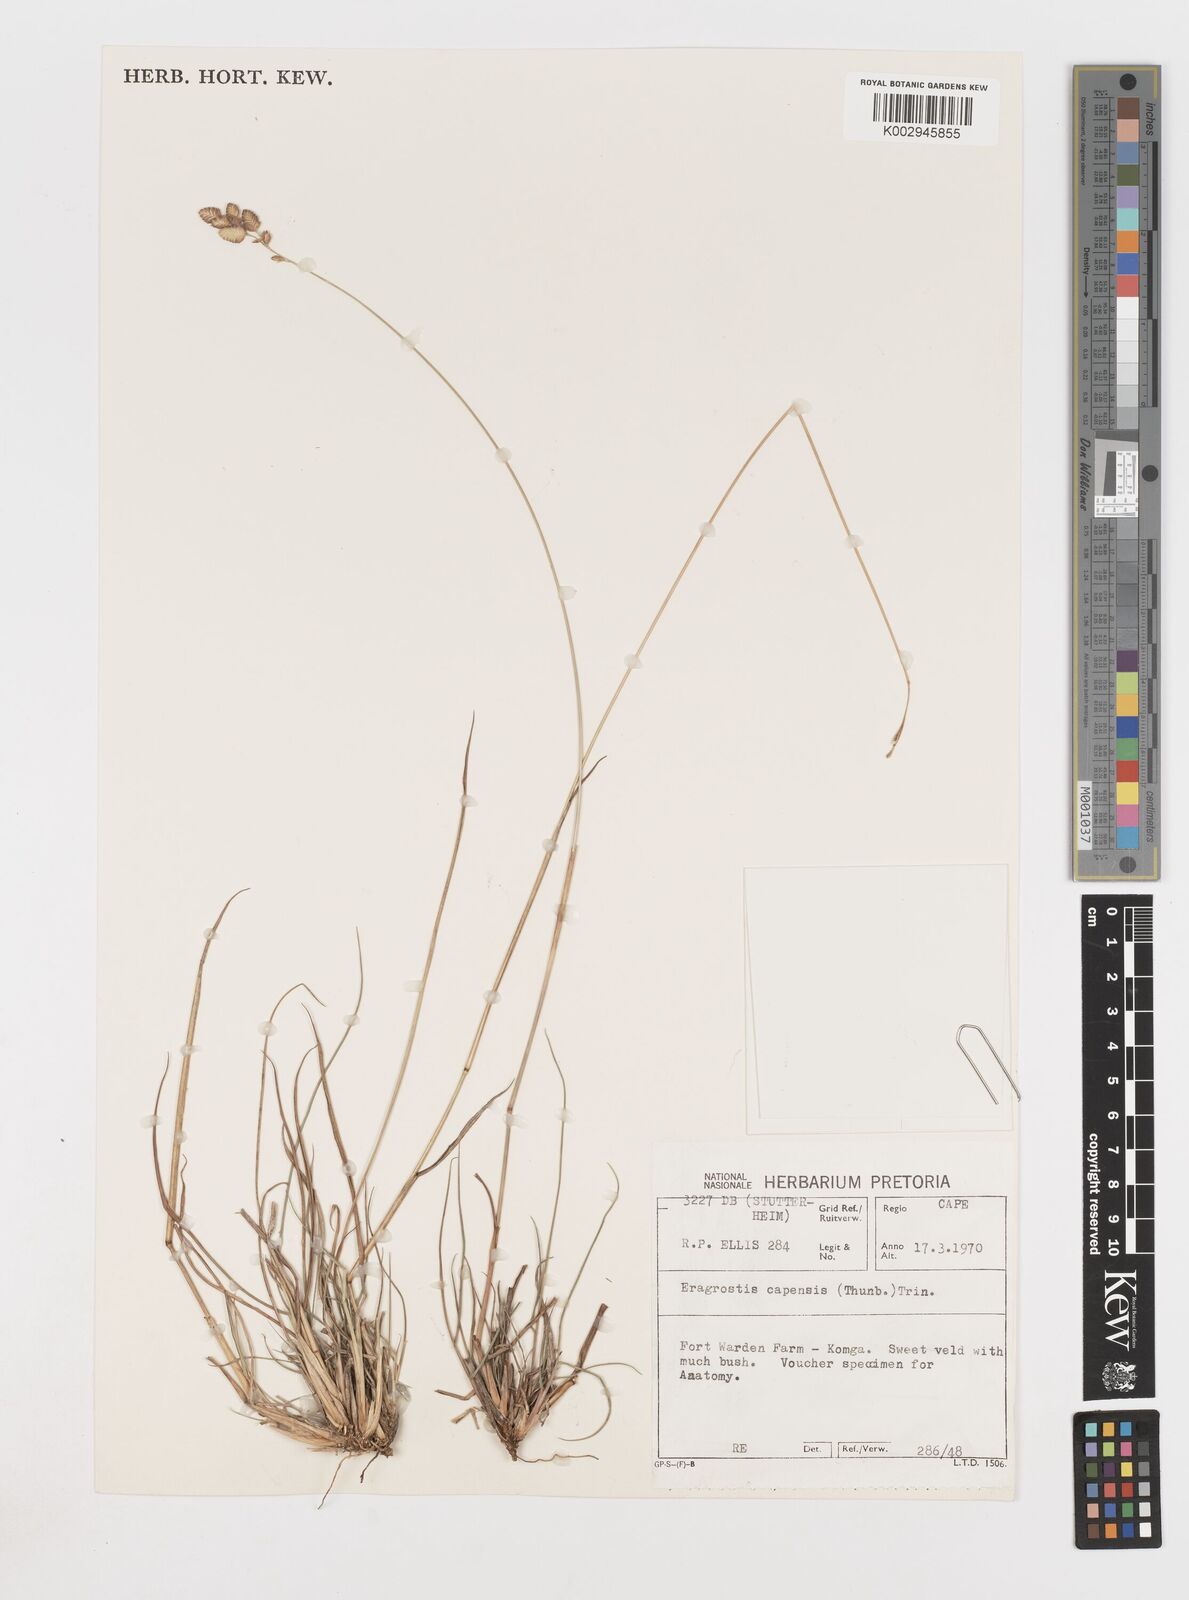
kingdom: Plantae
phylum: Tracheophyta
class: Liliopsida
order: Poales
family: Poaceae
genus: Eragrostis
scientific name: Eragrostis capensis
